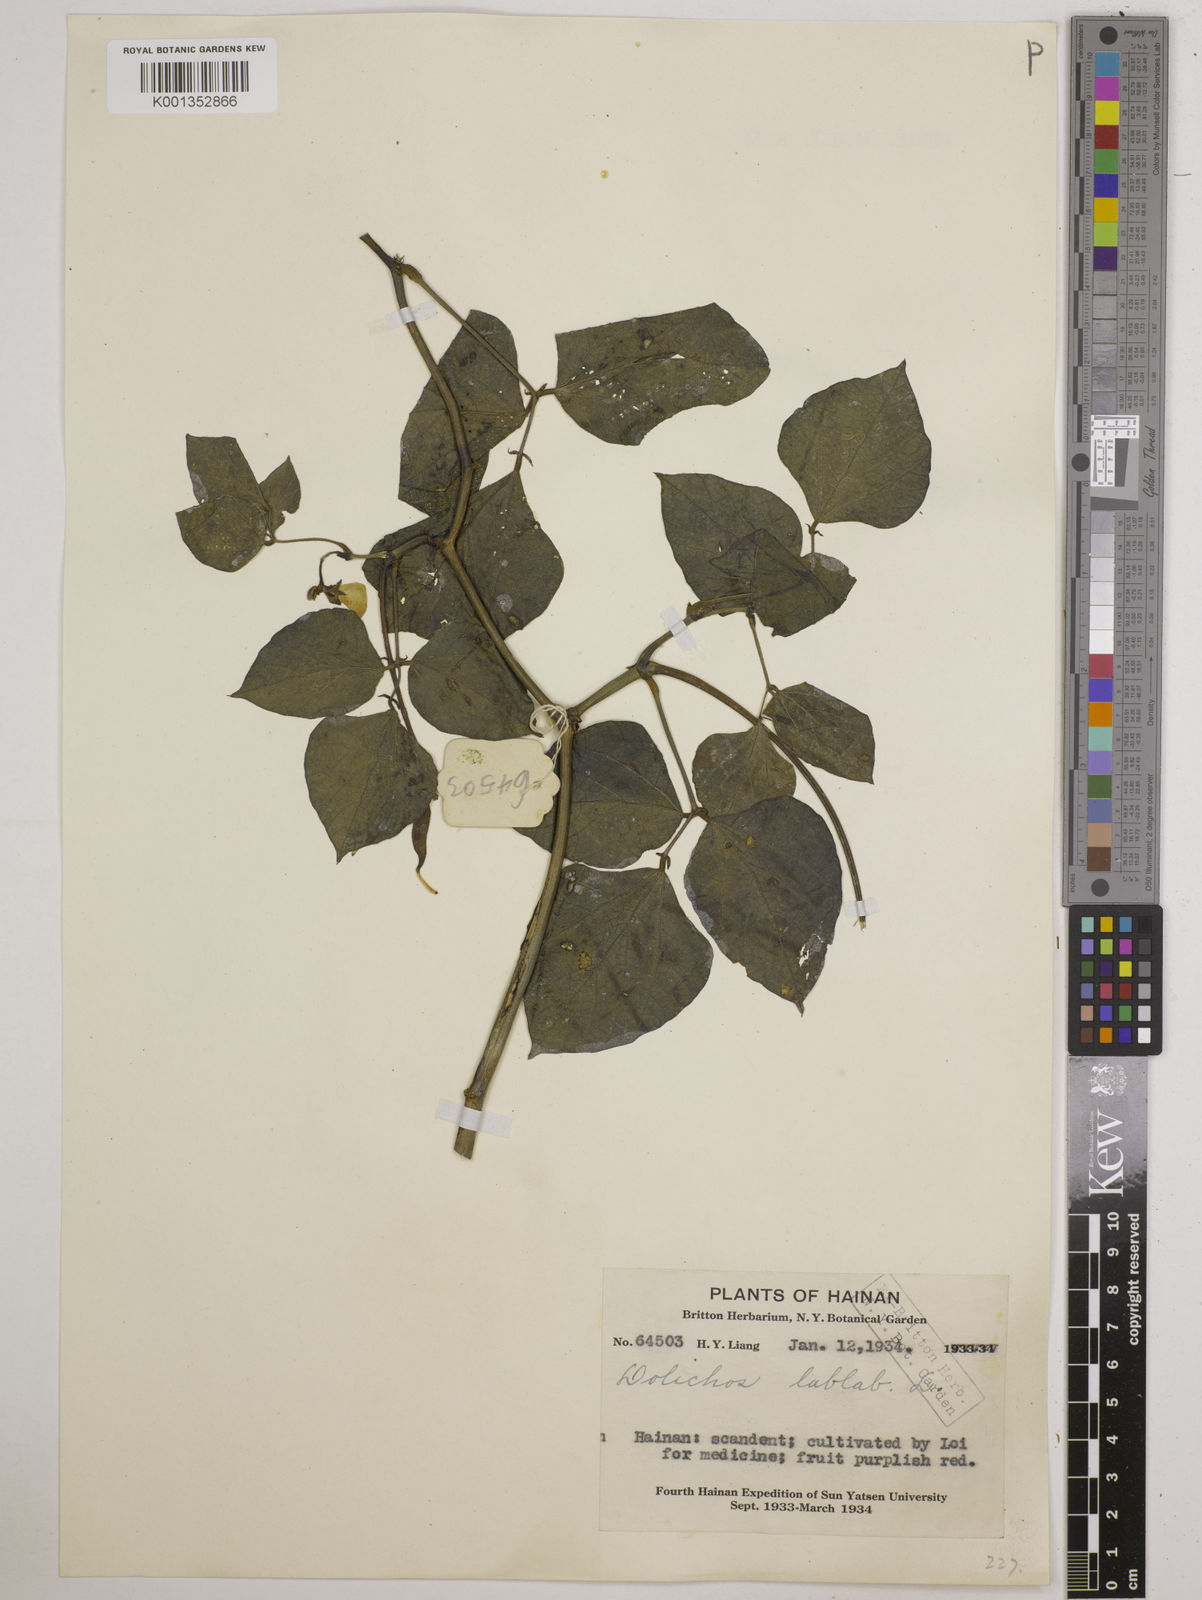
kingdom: Plantae
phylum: Tracheophyta
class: Magnoliopsida
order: Fabales
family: Fabaceae
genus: Lablab
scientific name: Lablab purpureus
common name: Lablab-bean
